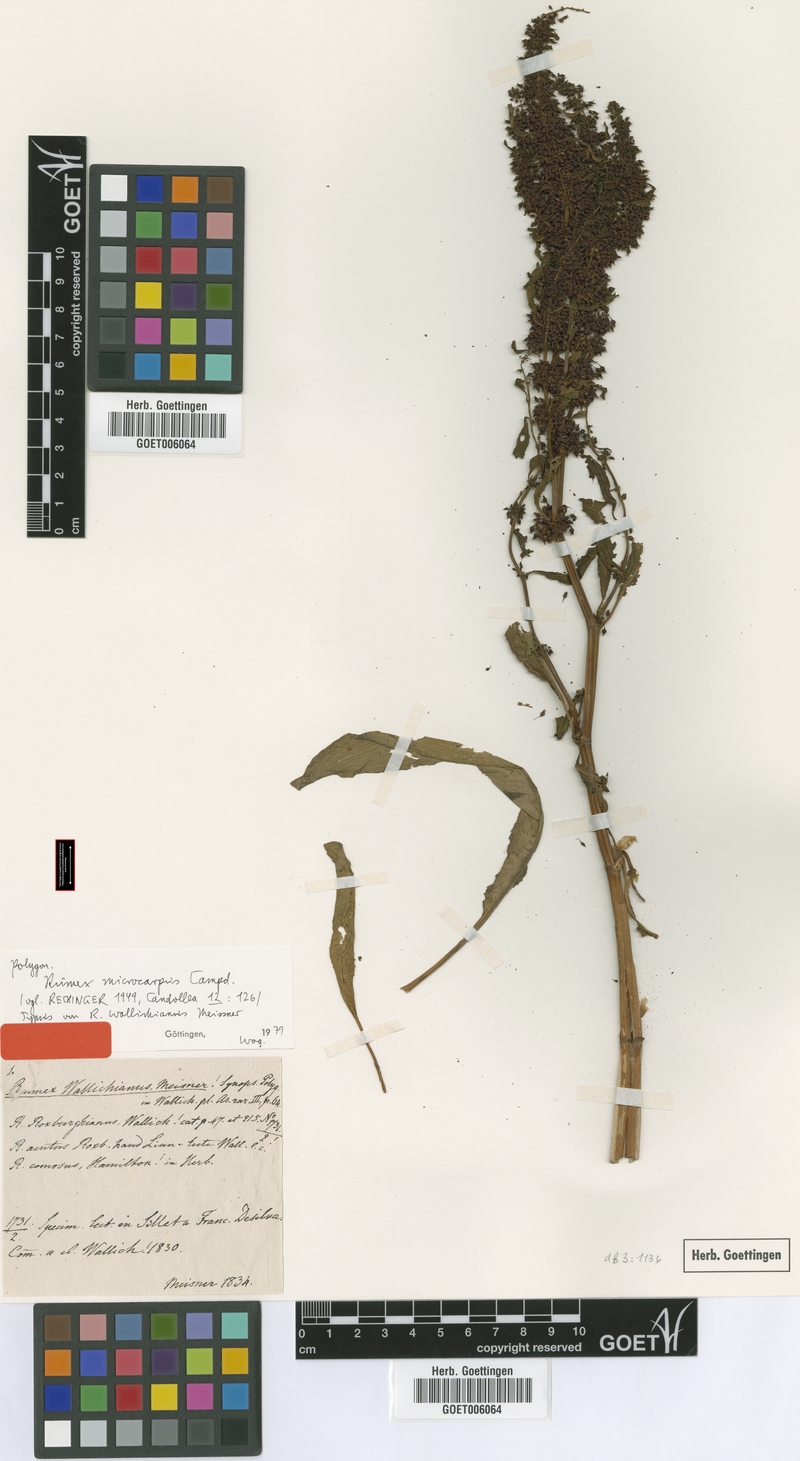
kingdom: Plantae
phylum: Tracheophyta
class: Magnoliopsida
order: Caryophyllales
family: Polygonaceae
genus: Rumex
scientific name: Rumex microcarpus
